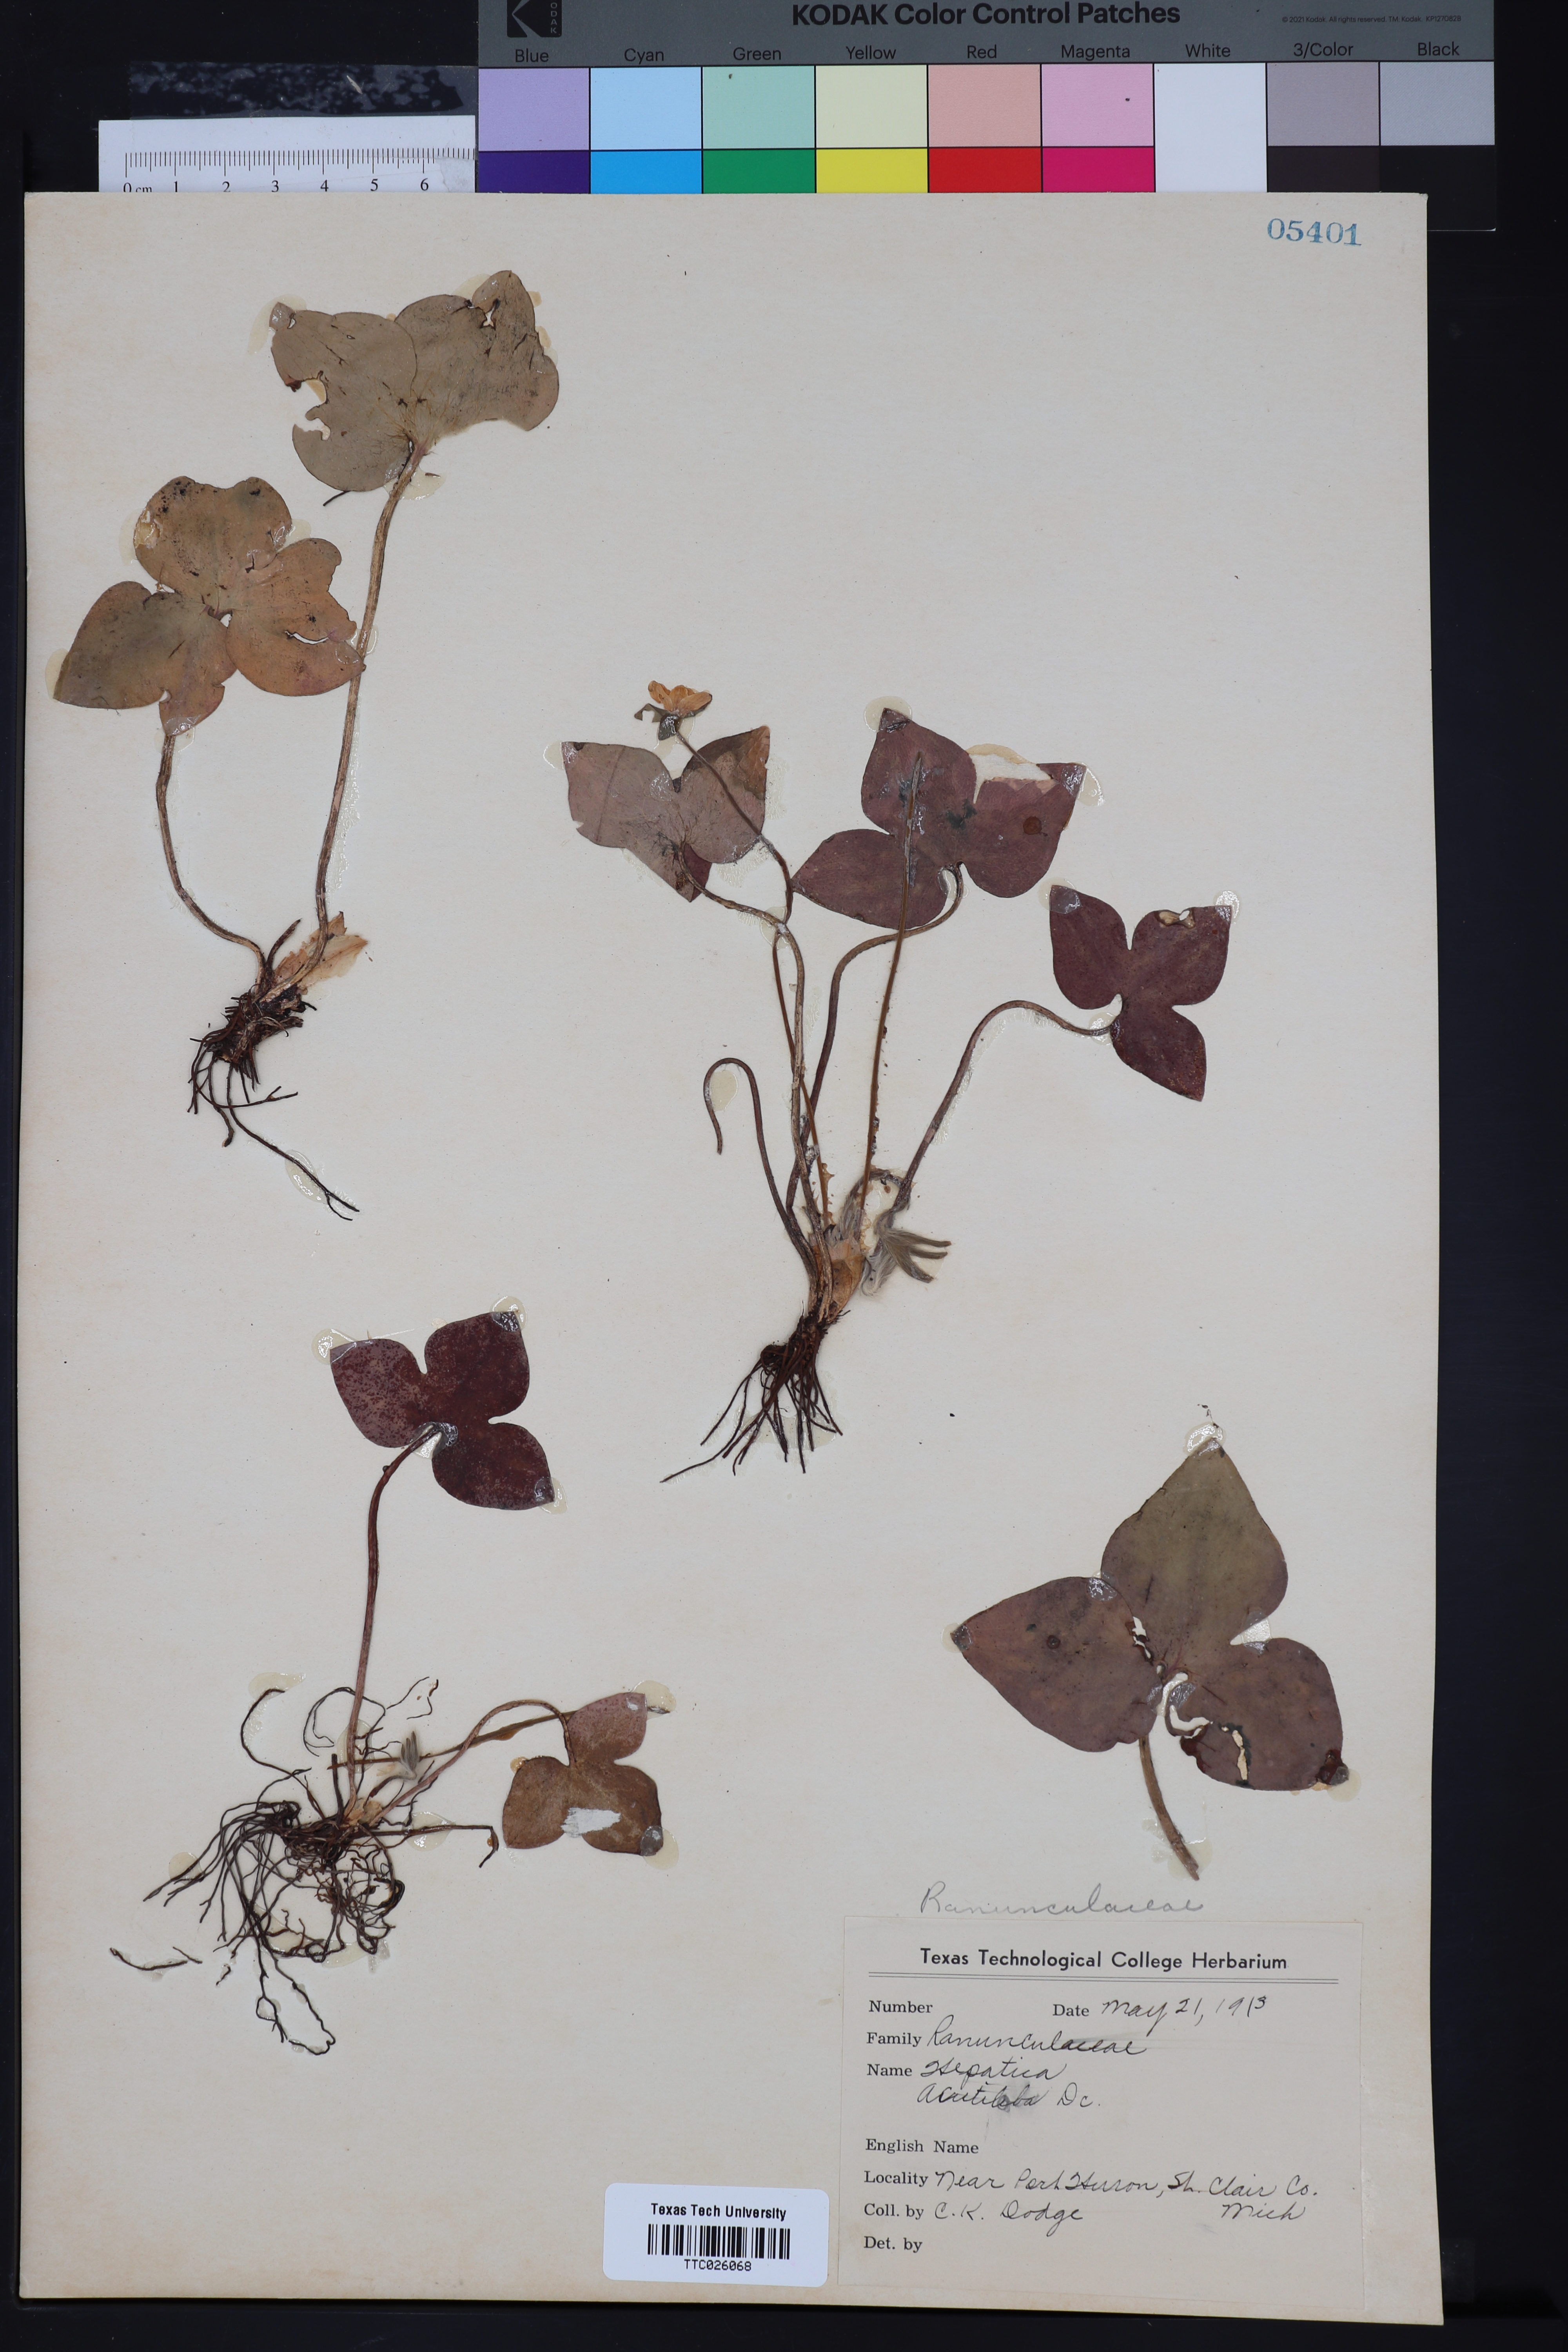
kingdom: Plantae
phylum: Tracheophyta
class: Magnoliopsida
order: Ranunculales
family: Ranunculaceae
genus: Hepatica
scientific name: Hepatica acutiloba
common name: Sharp-lobed hepatica
